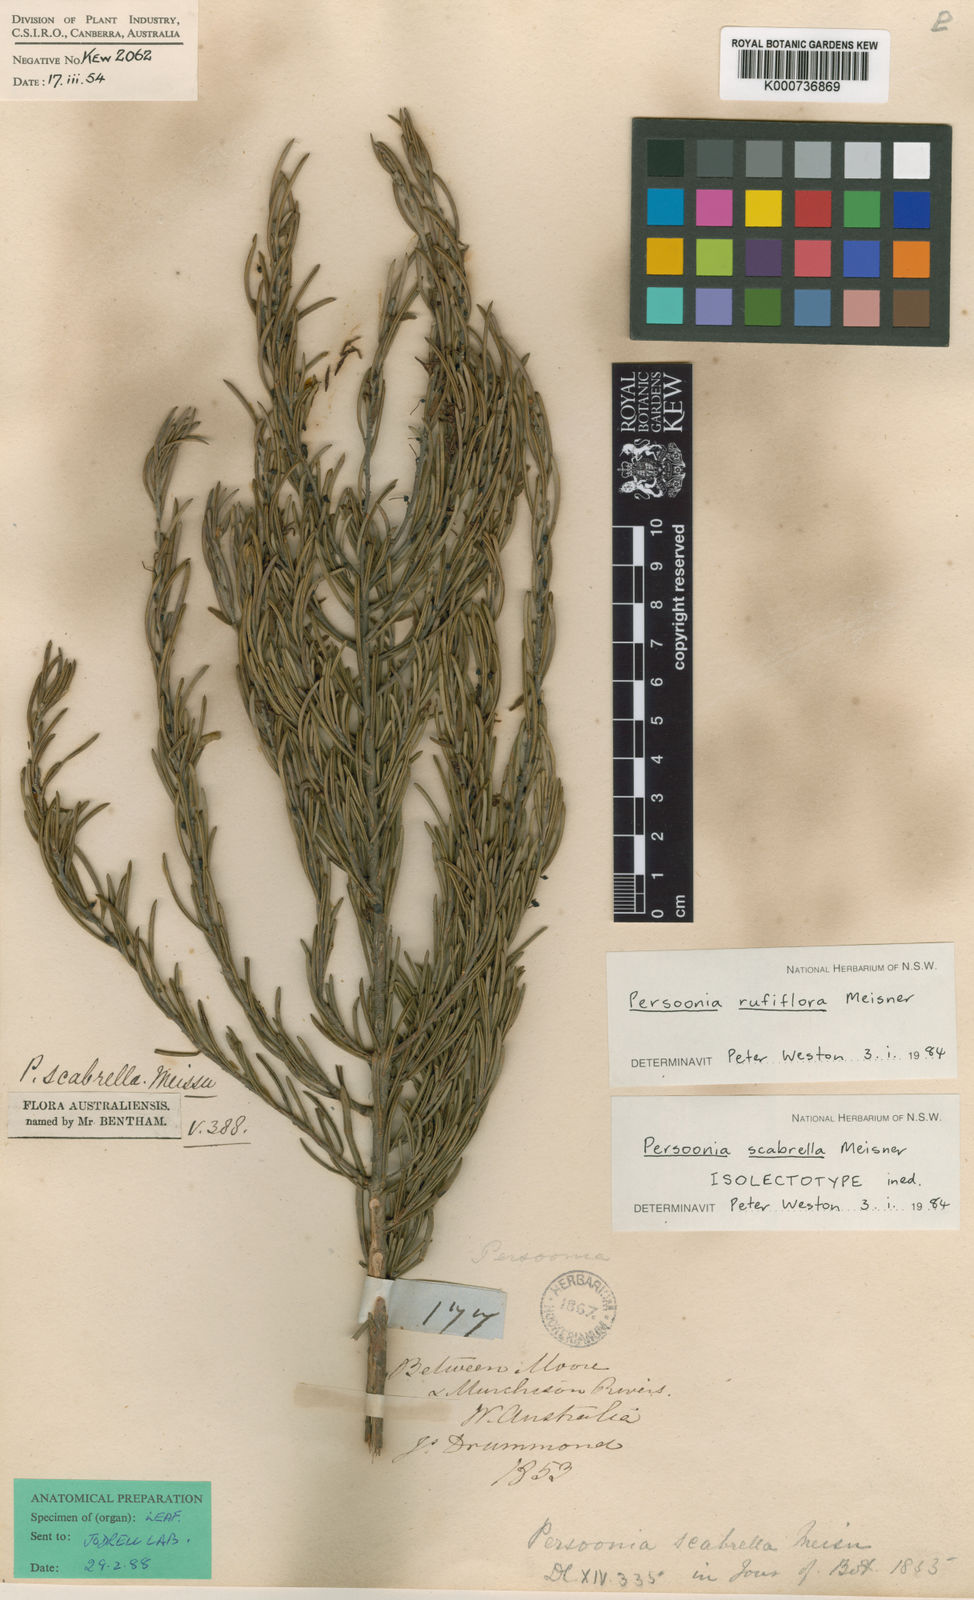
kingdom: Plantae
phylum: Tracheophyta
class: Magnoliopsida
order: Proteales
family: Proteaceae
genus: Persoonia
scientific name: Persoonia rufiflora
